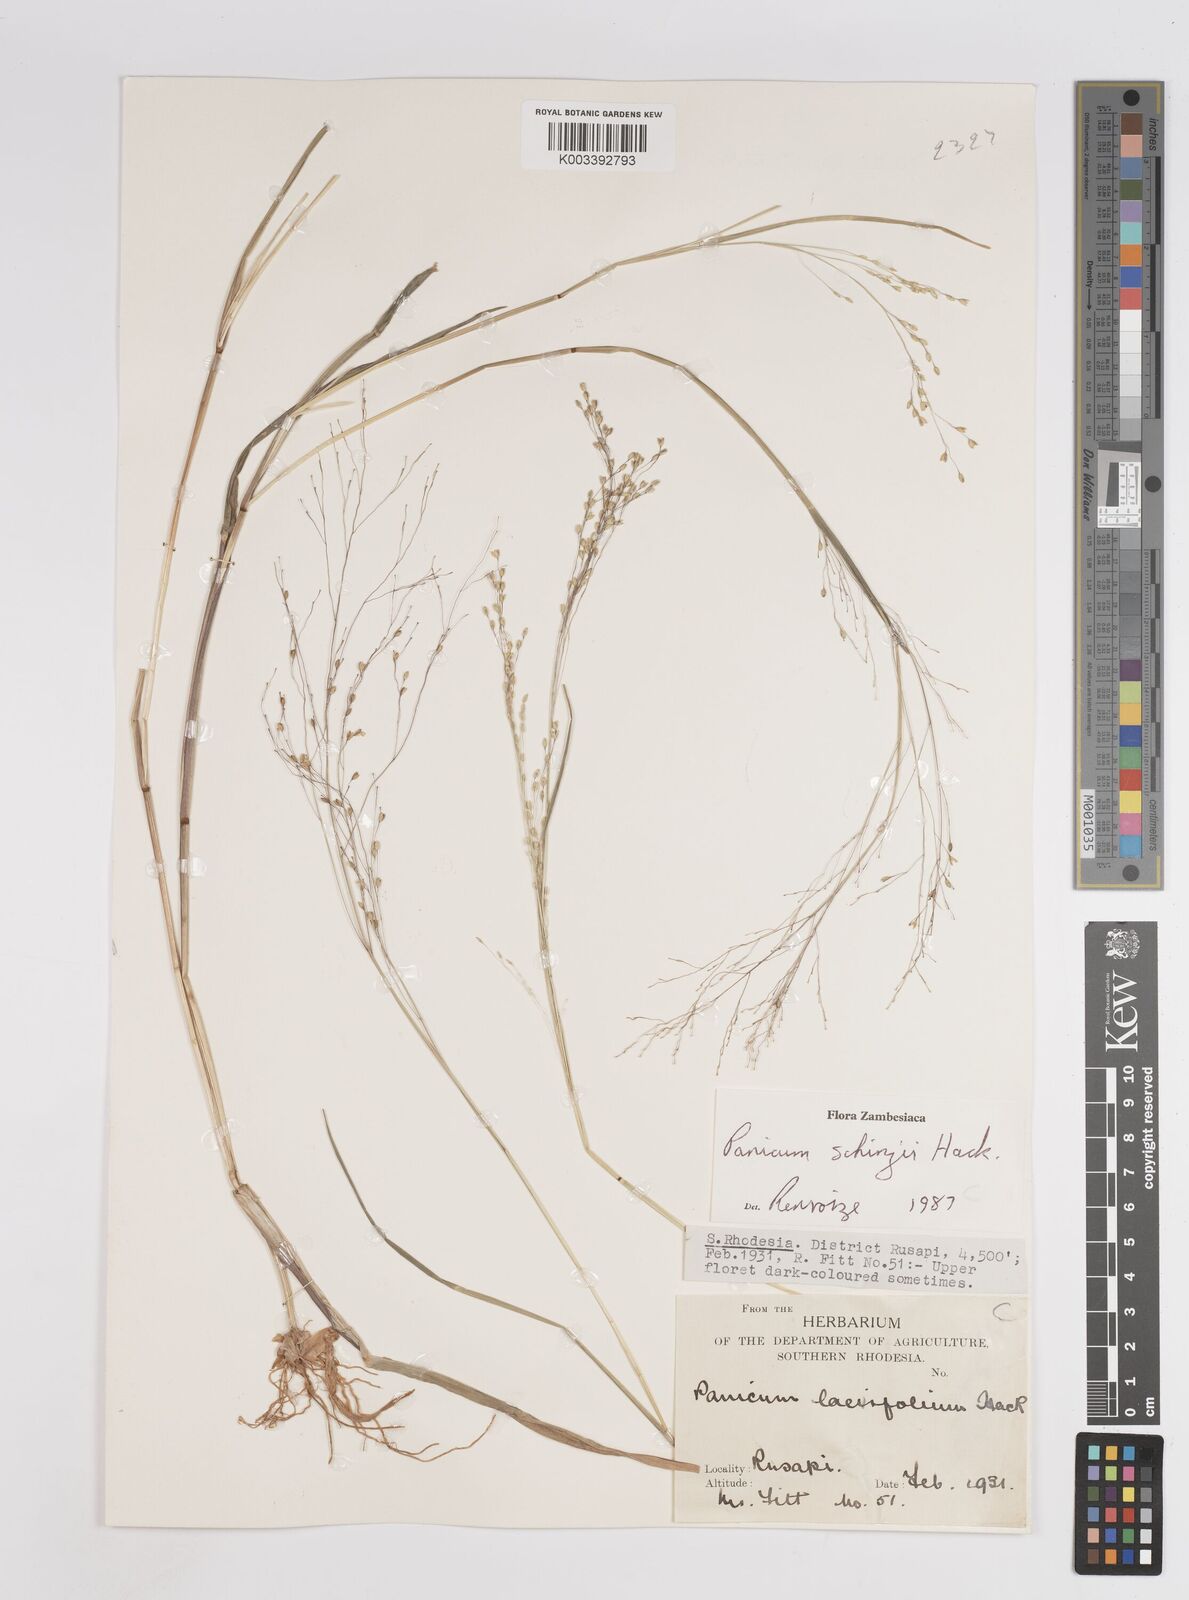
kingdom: Plantae
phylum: Tracheophyta
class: Liliopsida
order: Poales
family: Poaceae
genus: Panicum
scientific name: Panicum schinzii
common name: Sweet grass
